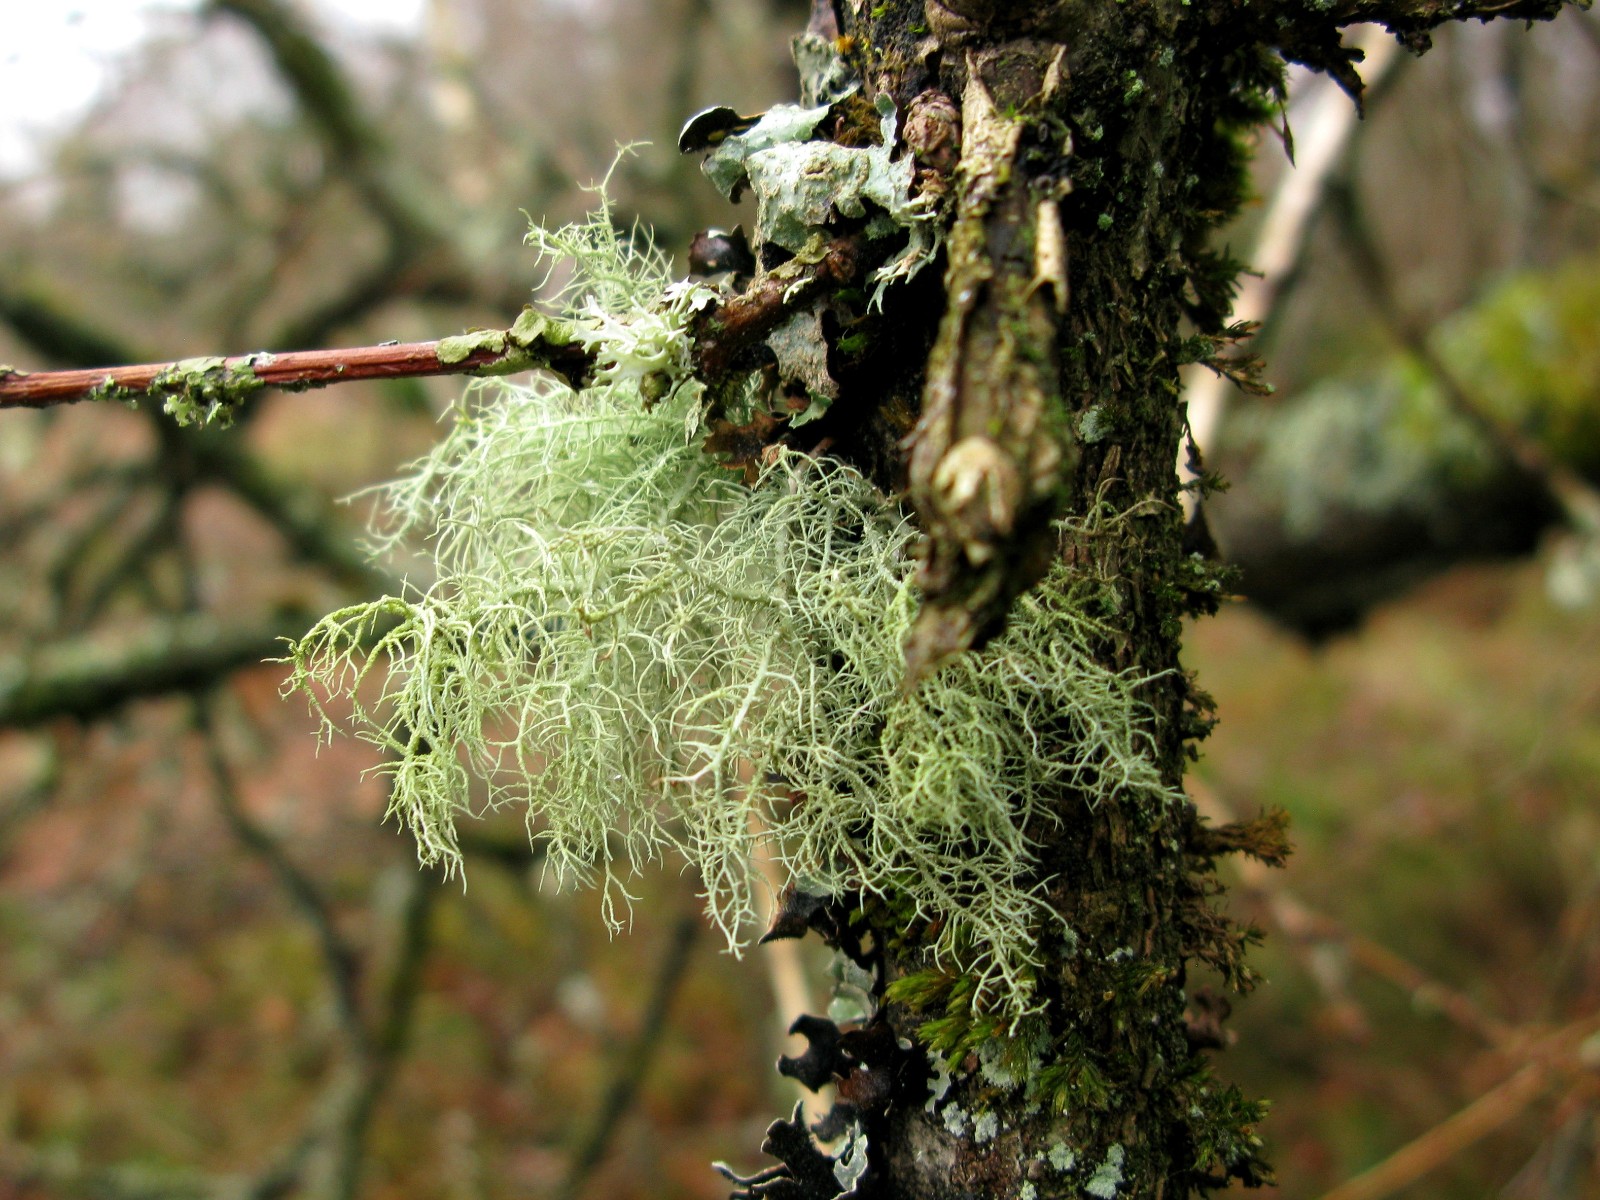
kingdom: Fungi
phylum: Ascomycota
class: Lecanoromycetes
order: Lecanorales
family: Parmeliaceae
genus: Usnea
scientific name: Usnea subfloridana
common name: busket skæglav
